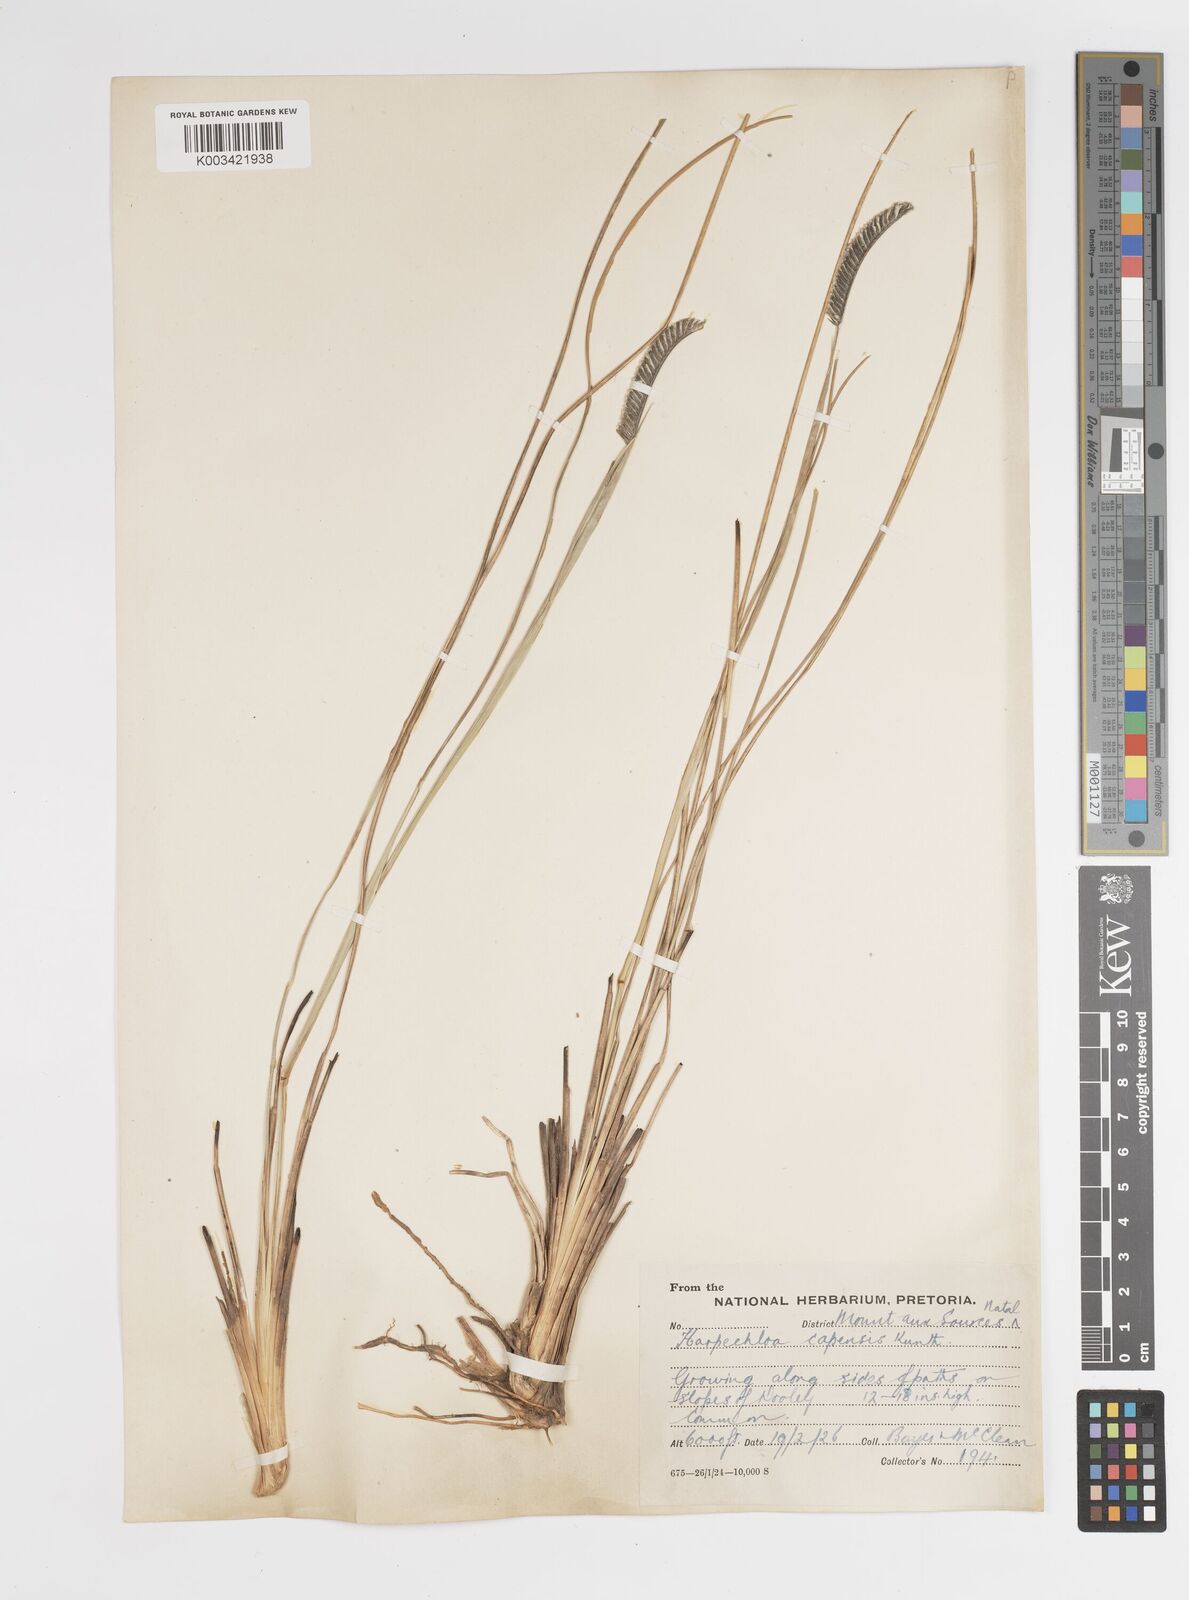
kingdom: Plantae
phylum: Tracheophyta
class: Liliopsida
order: Poales
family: Poaceae
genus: Harpochloa
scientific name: Harpochloa falx
